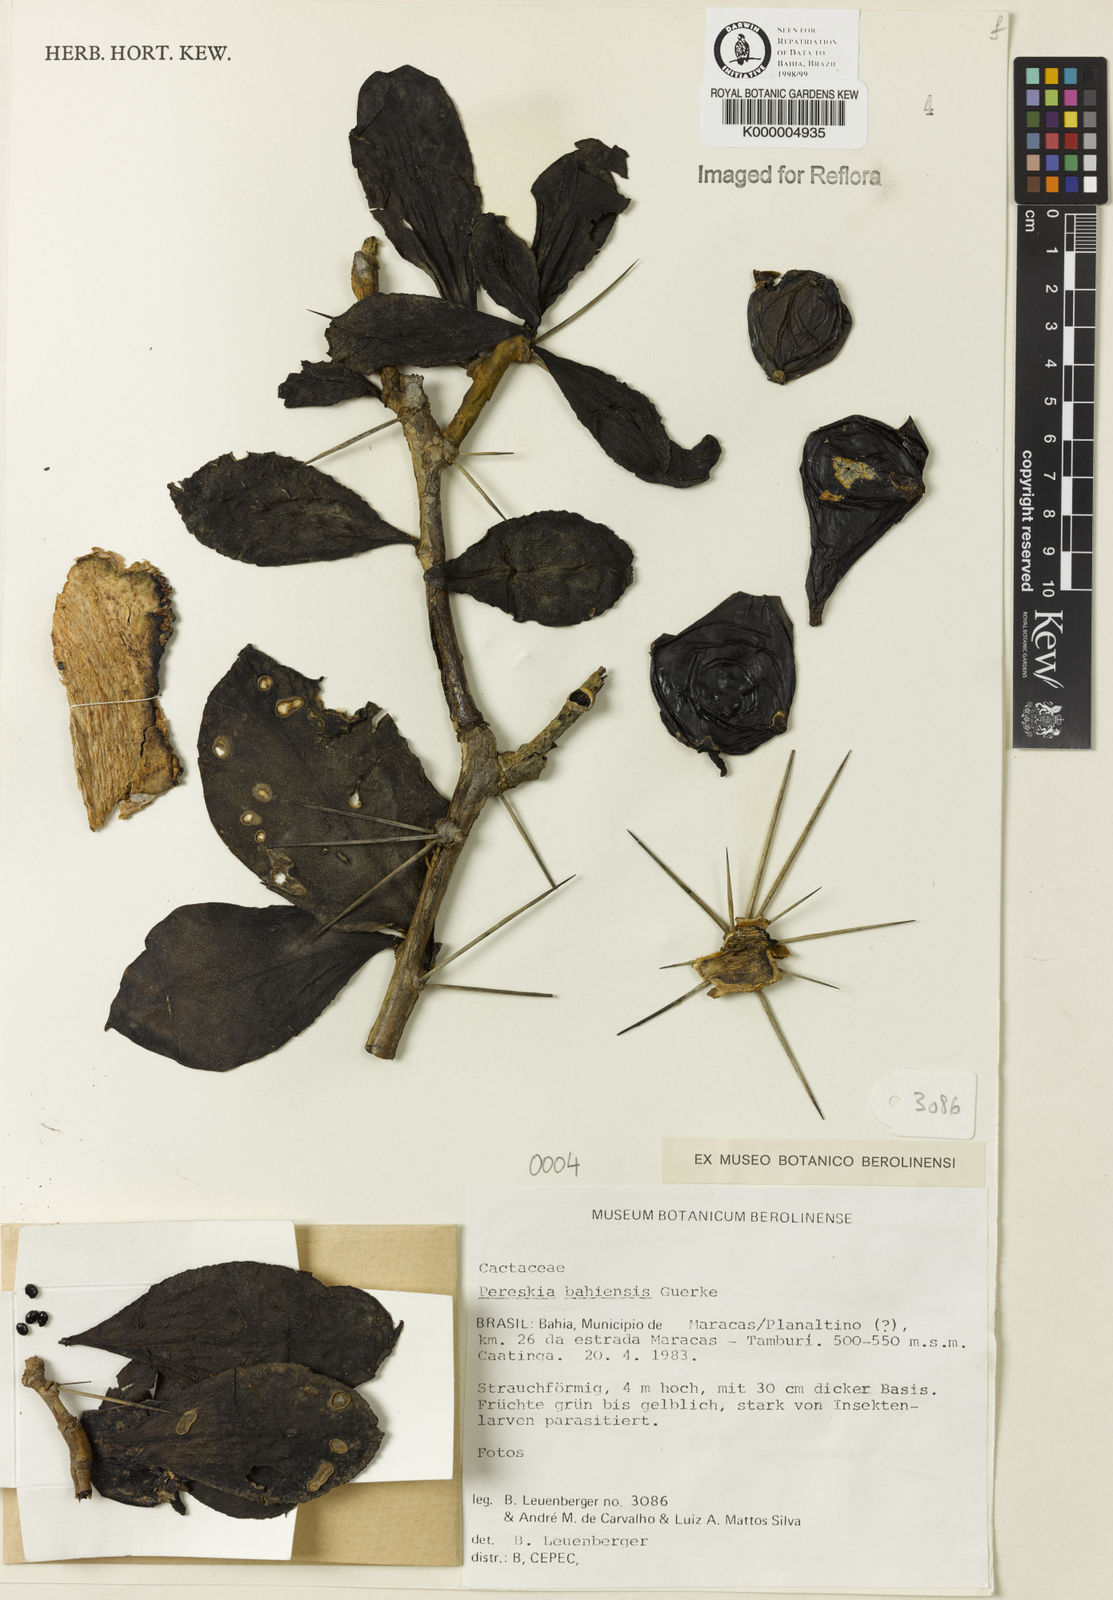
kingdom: Plantae
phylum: Tracheophyta
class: Magnoliopsida
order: Caryophyllales
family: Cactaceae
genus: Pereskia
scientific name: Pereskia
